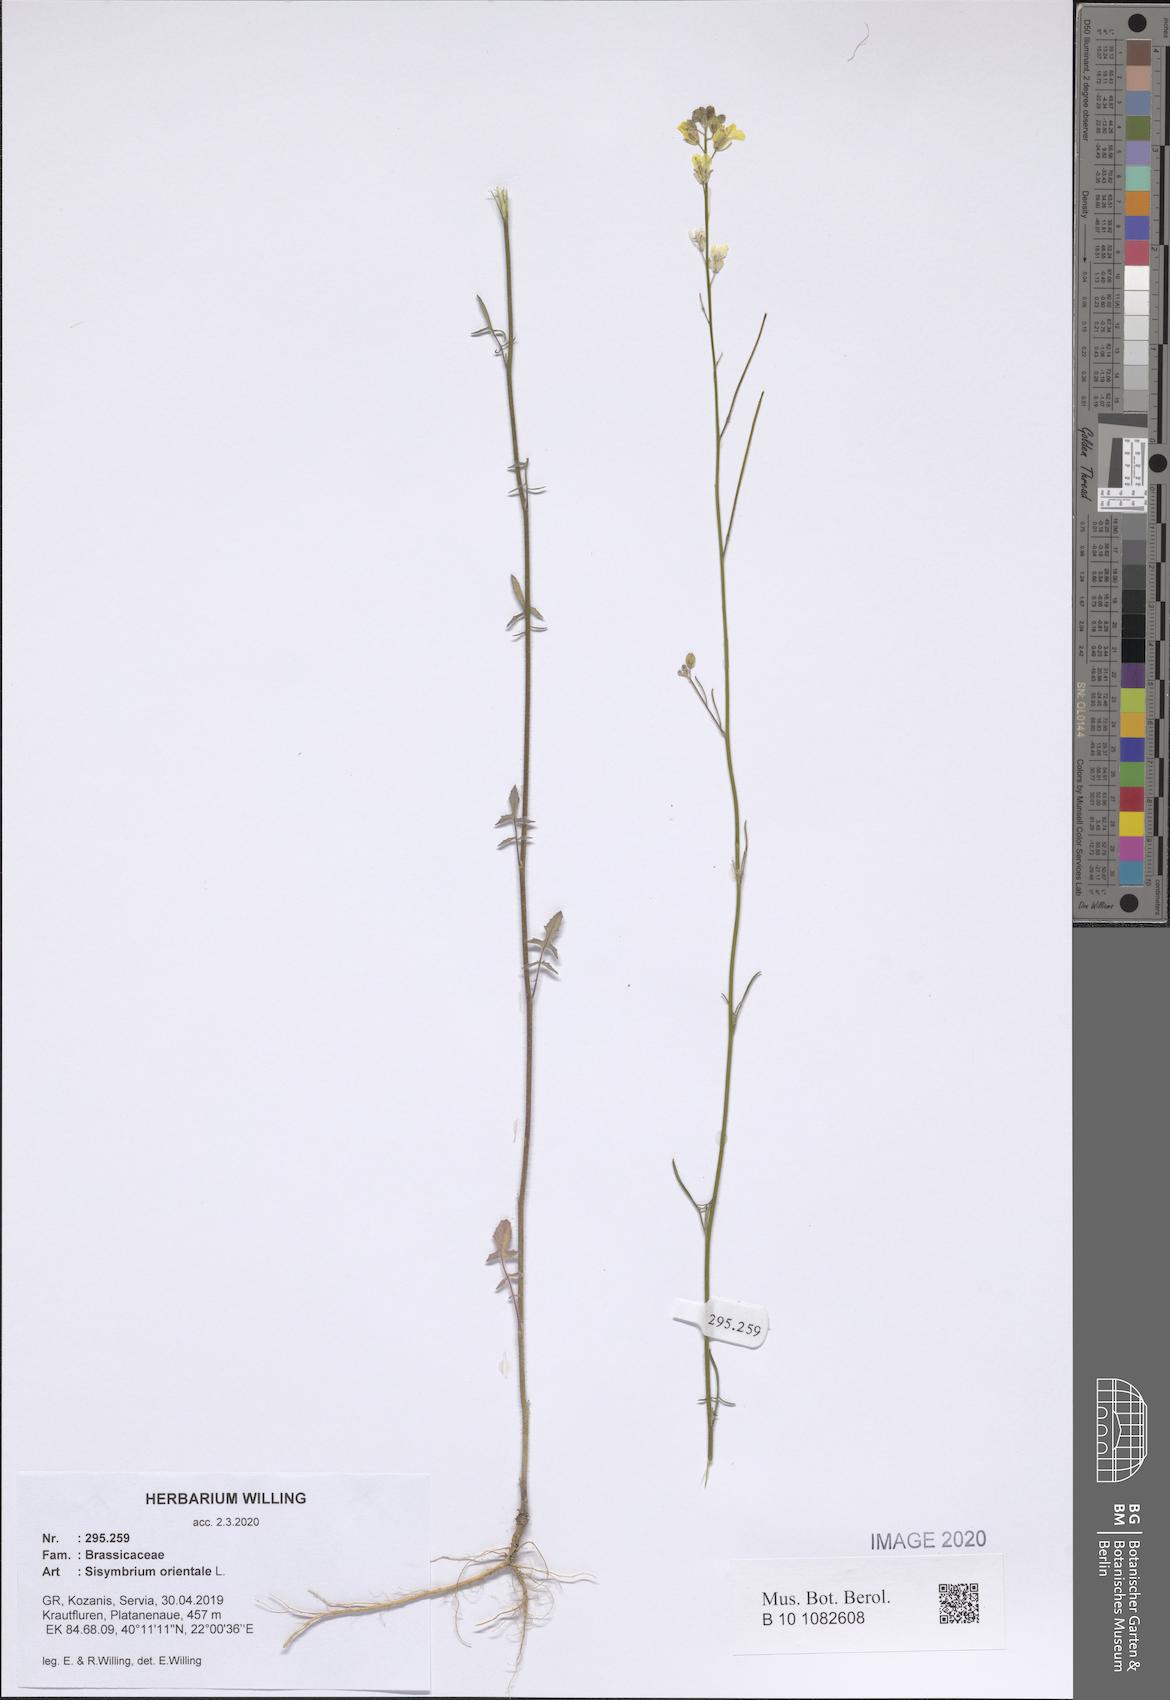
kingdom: Plantae
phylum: Tracheophyta
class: Magnoliopsida
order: Brassicales
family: Brassicaceae
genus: Sisymbrium
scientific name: Sisymbrium orientale
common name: Eastern rocket
